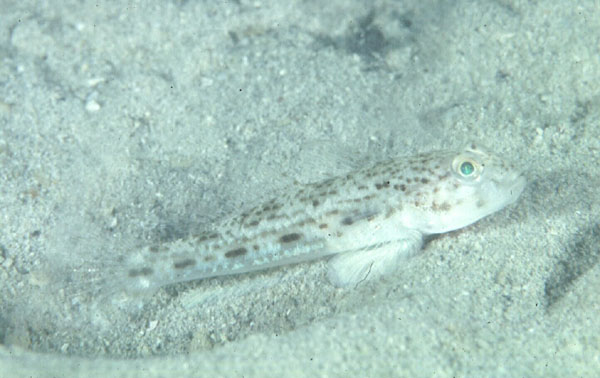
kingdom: Animalia
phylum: Chordata
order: Perciformes
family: Gobiidae
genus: Opua
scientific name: Opua nephodes
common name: Cloudy goby
